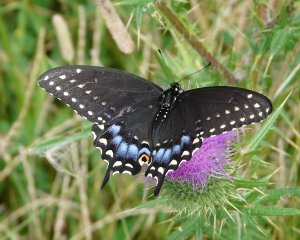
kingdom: Animalia
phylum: Arthropoda
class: Insecta
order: Lepidoptera
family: Papilionidae
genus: Papilio
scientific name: Papilio polyxenes
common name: Black Swallowtail
